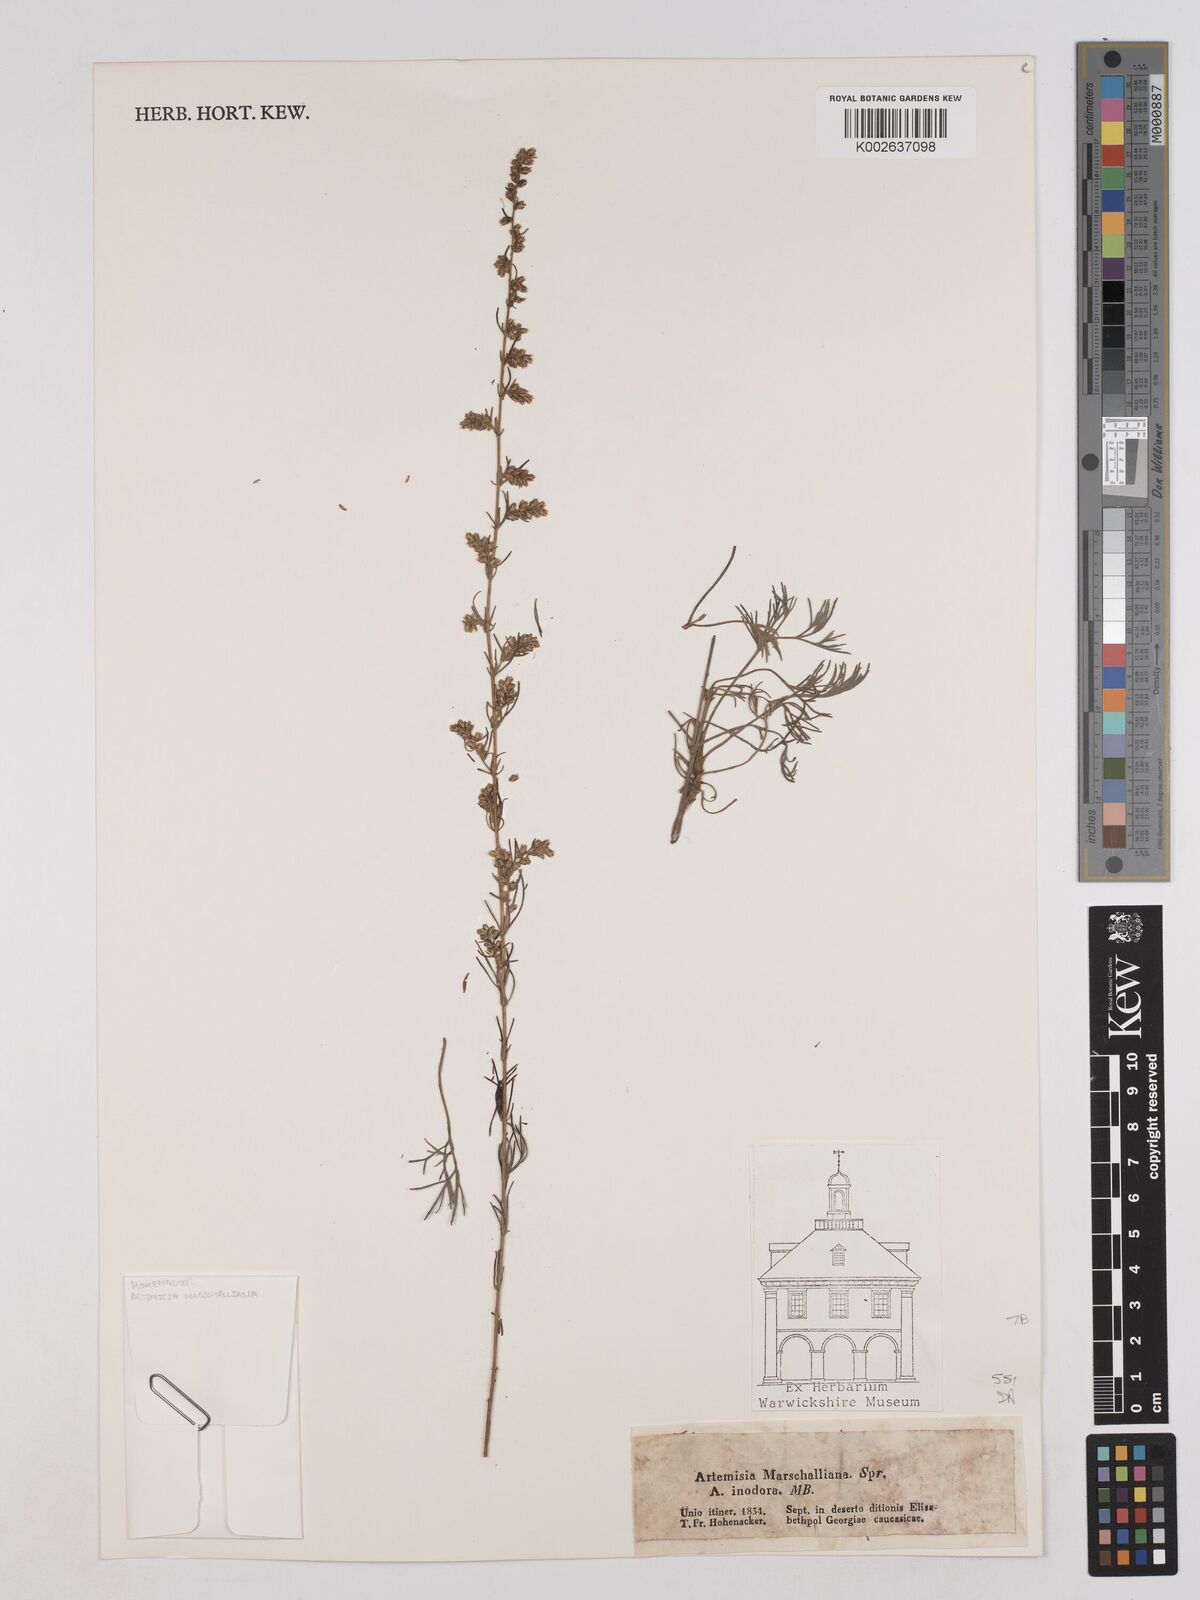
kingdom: Plantae
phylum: Tracheophyta
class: Magnoliopsida
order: Asterales
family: Asteraceae
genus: Artemisia
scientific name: Artemisia marschalliana
